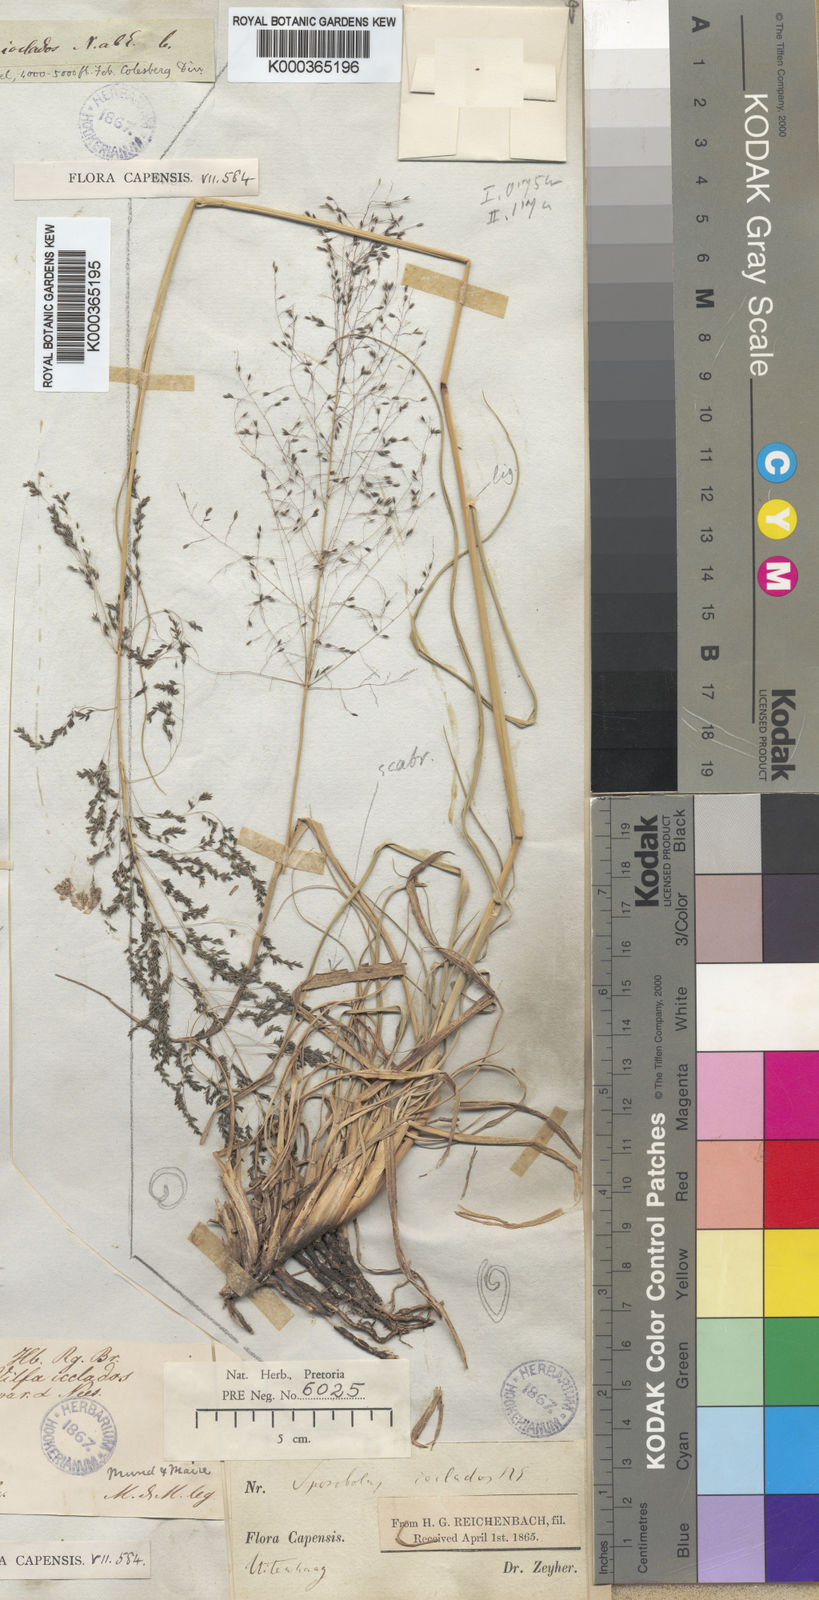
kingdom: Plantae
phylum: Tracheophyta
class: Liliopsida
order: Poales
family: Poaceae
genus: Sporobolus
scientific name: Sporobolus ioclados
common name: Pan dropseed
